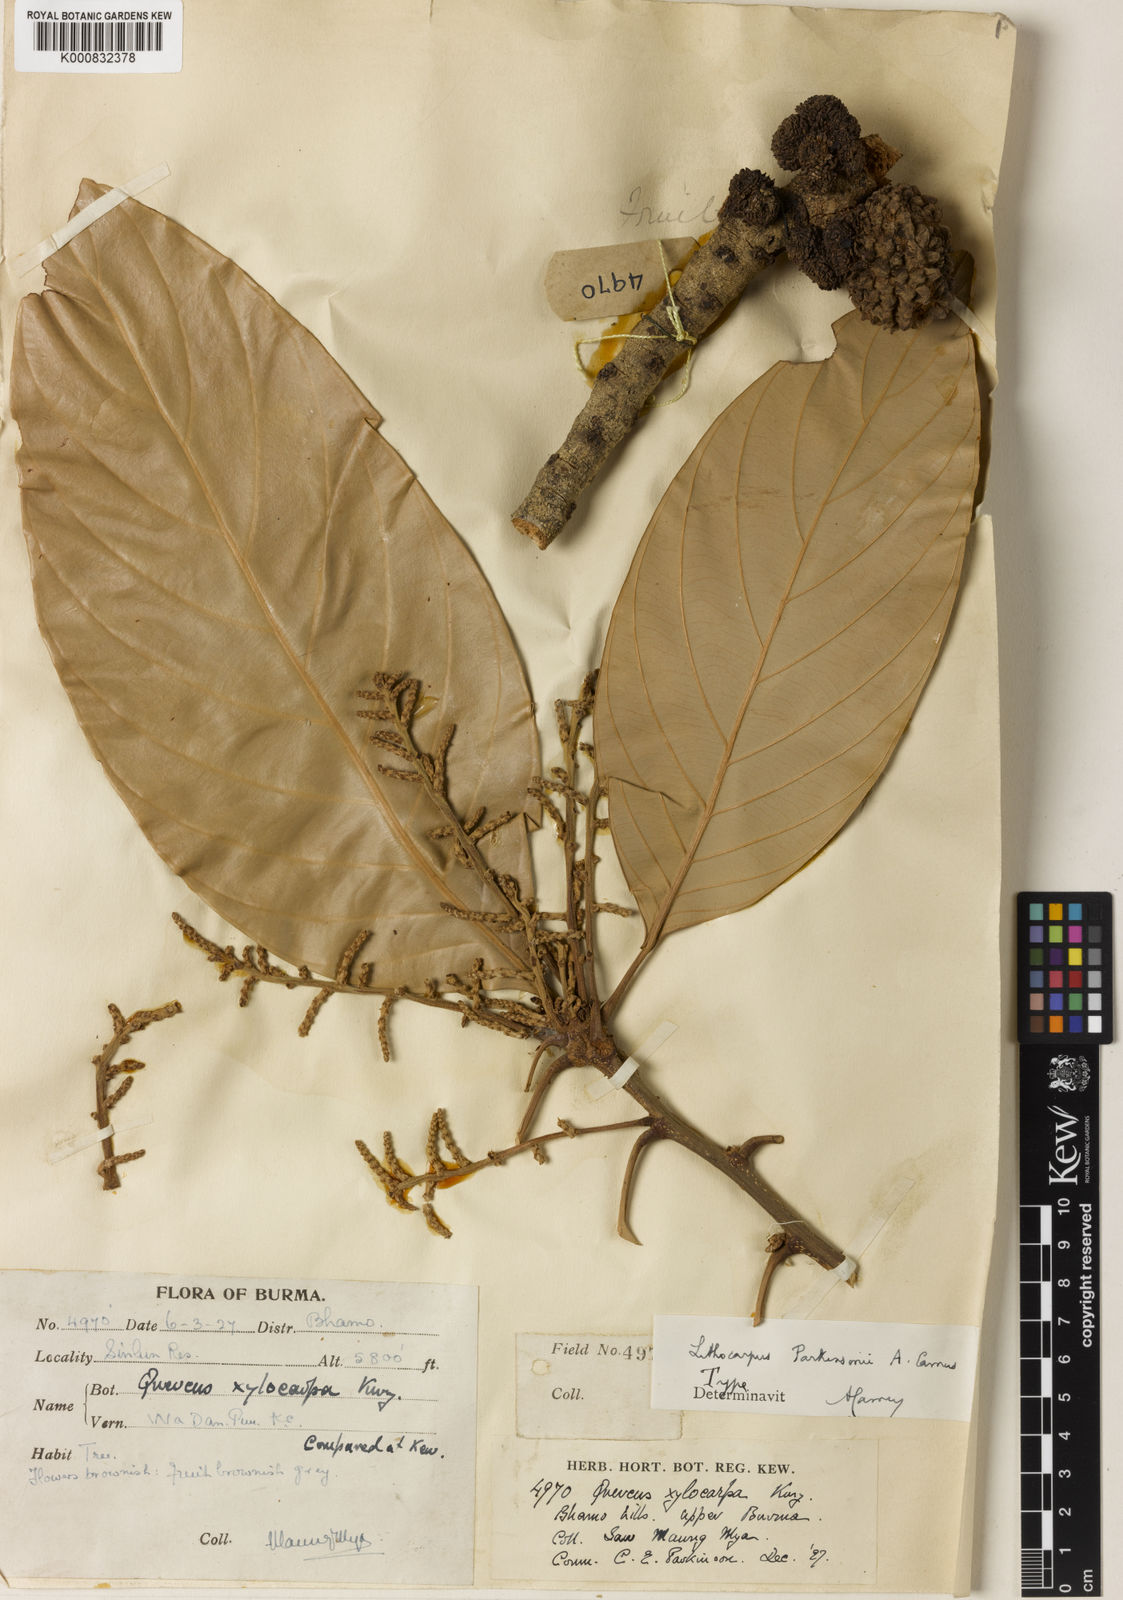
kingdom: Plantae
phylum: Tracheophyta
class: Magnoliopsida
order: Fagales
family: Fagaceae
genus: Lithocarpus
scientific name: Lithocarpus jenkinsii
